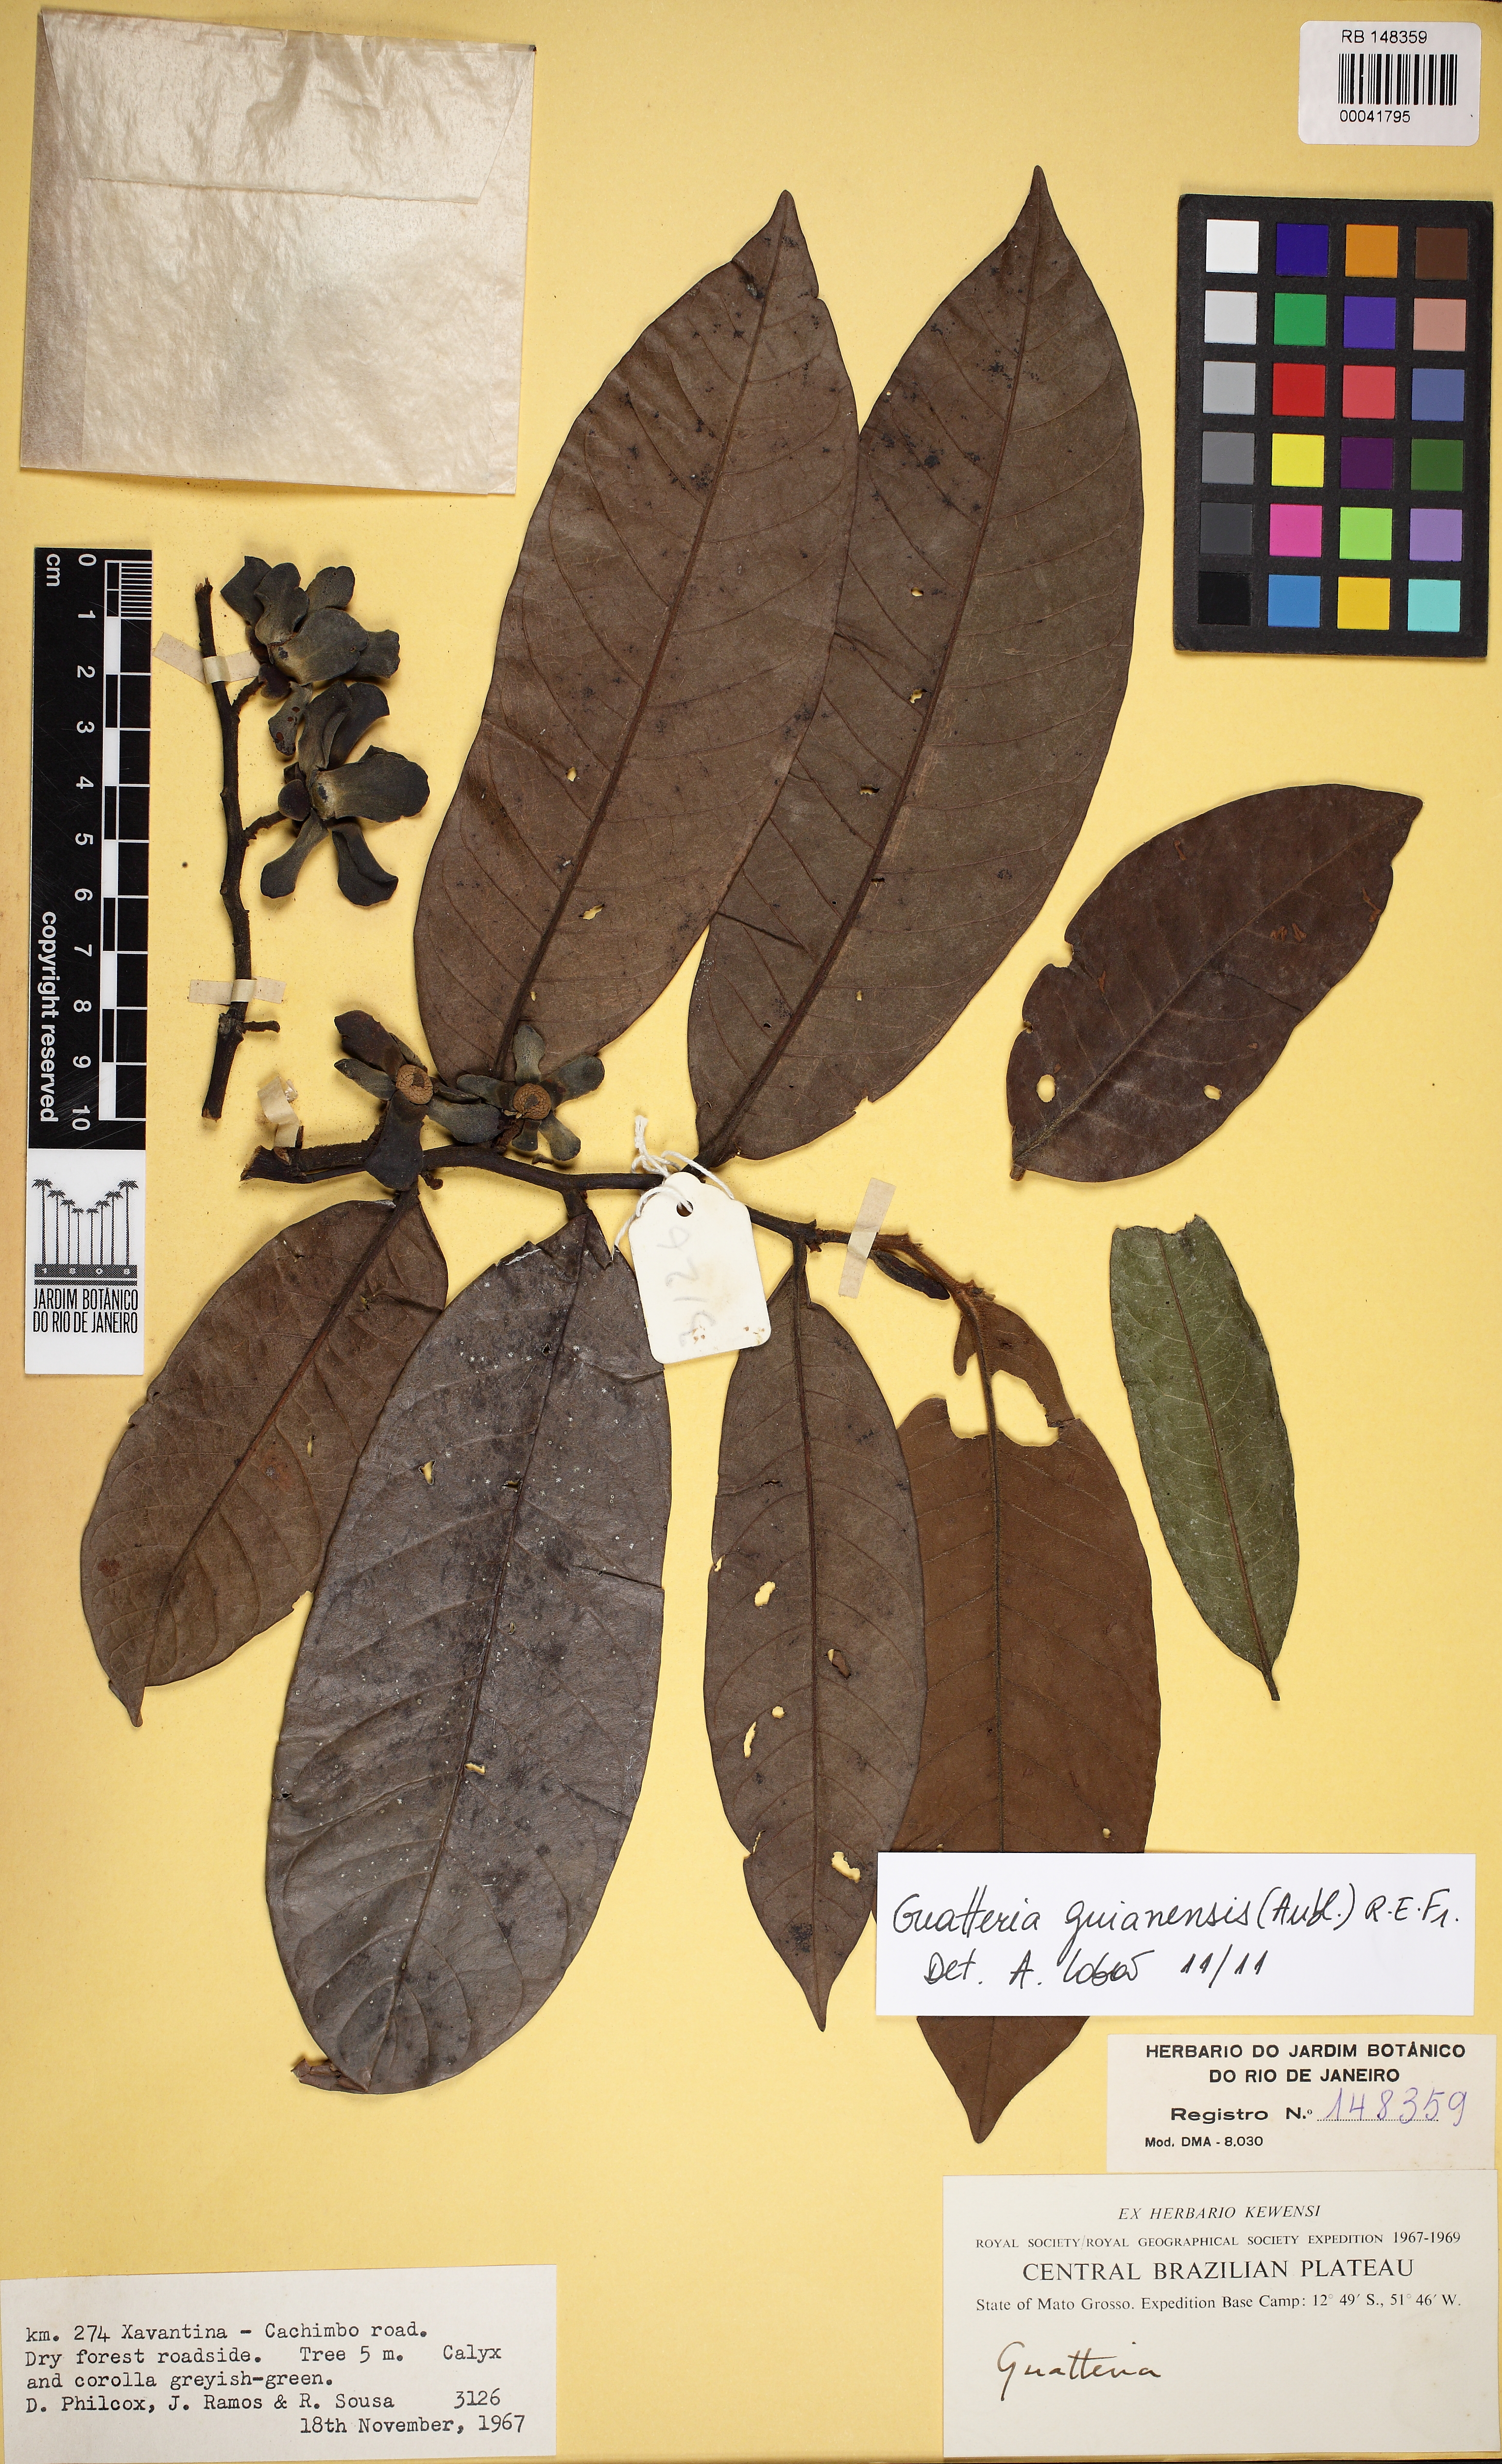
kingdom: Plantae
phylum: Tracheophyta
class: Magnoliopsida
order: Magnoliales
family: Annonaceae
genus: Guatteria
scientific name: Guatteria guianensis
